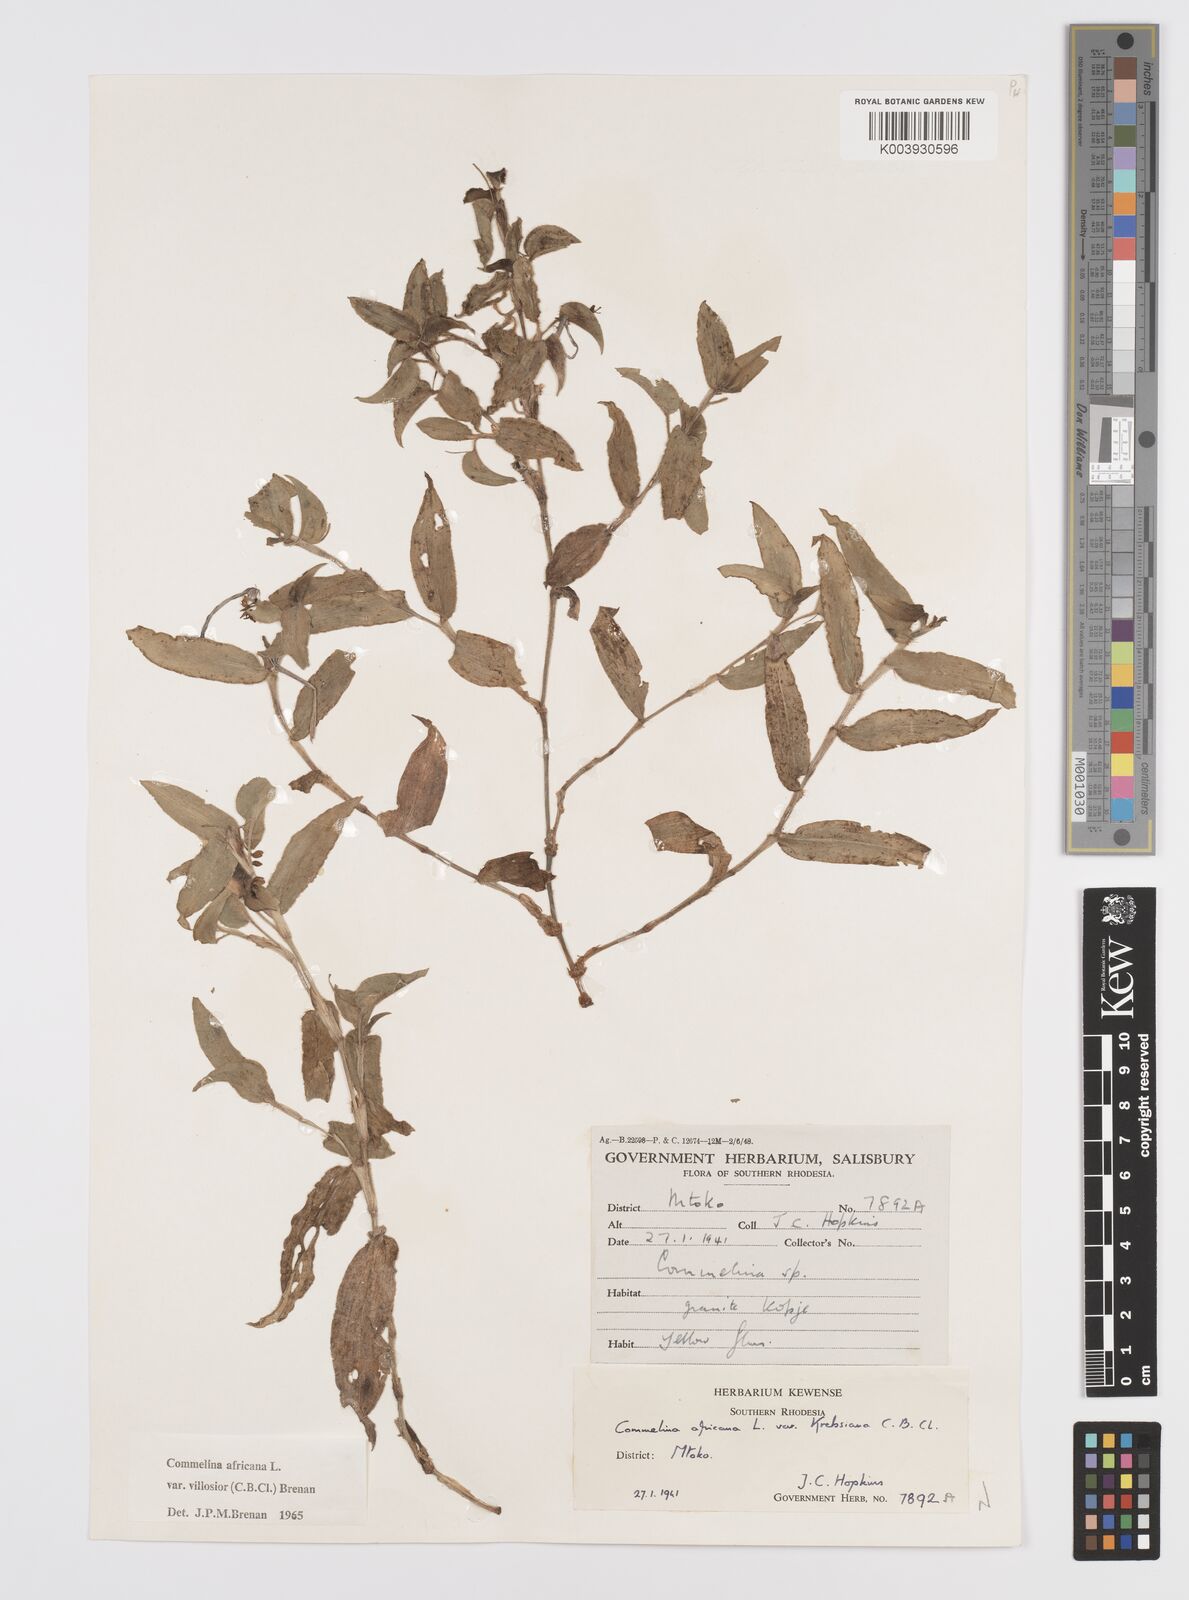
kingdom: Plantae
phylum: Tracheophyta
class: Liliopsida
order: Commelinales
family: Commelinaceae
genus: Commelina
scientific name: Commelina africana
